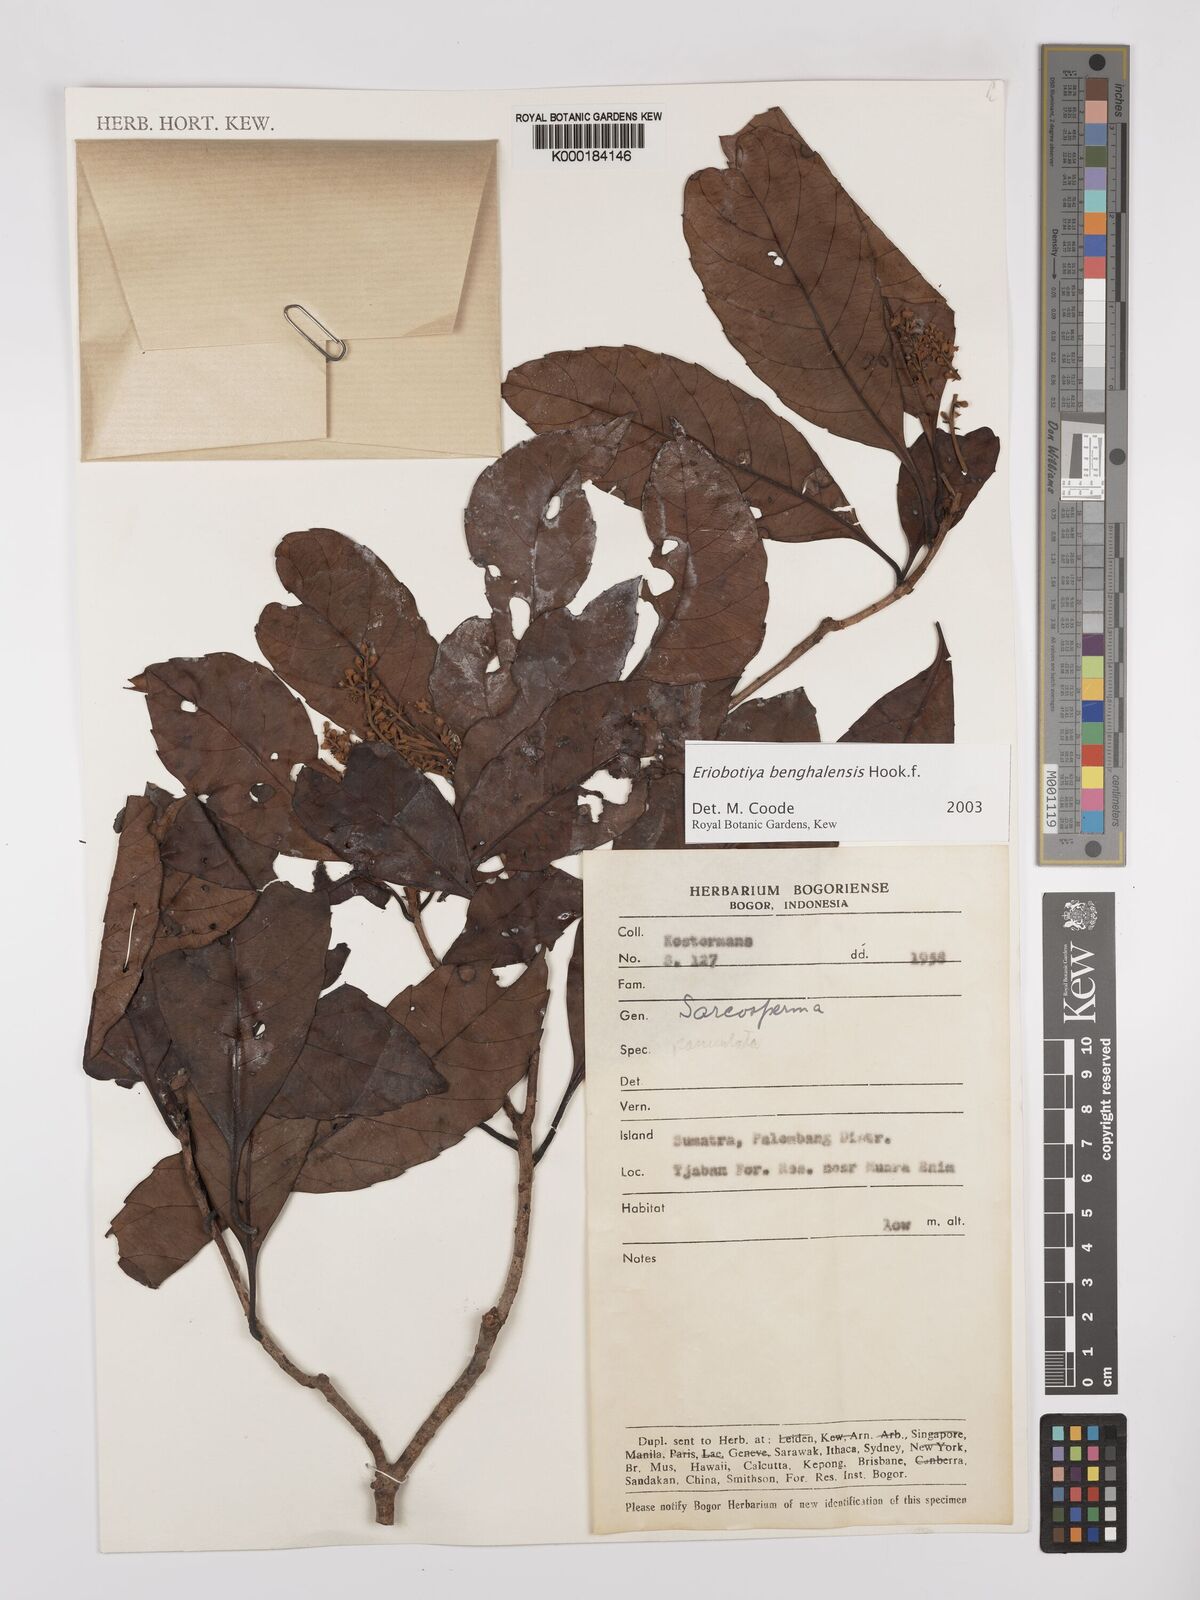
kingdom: Plantae
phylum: Tracheophyta
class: Magnoliopsida
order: Rosales
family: Rosaceae
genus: Rhaphiolepis
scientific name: Rhaphiolepis
